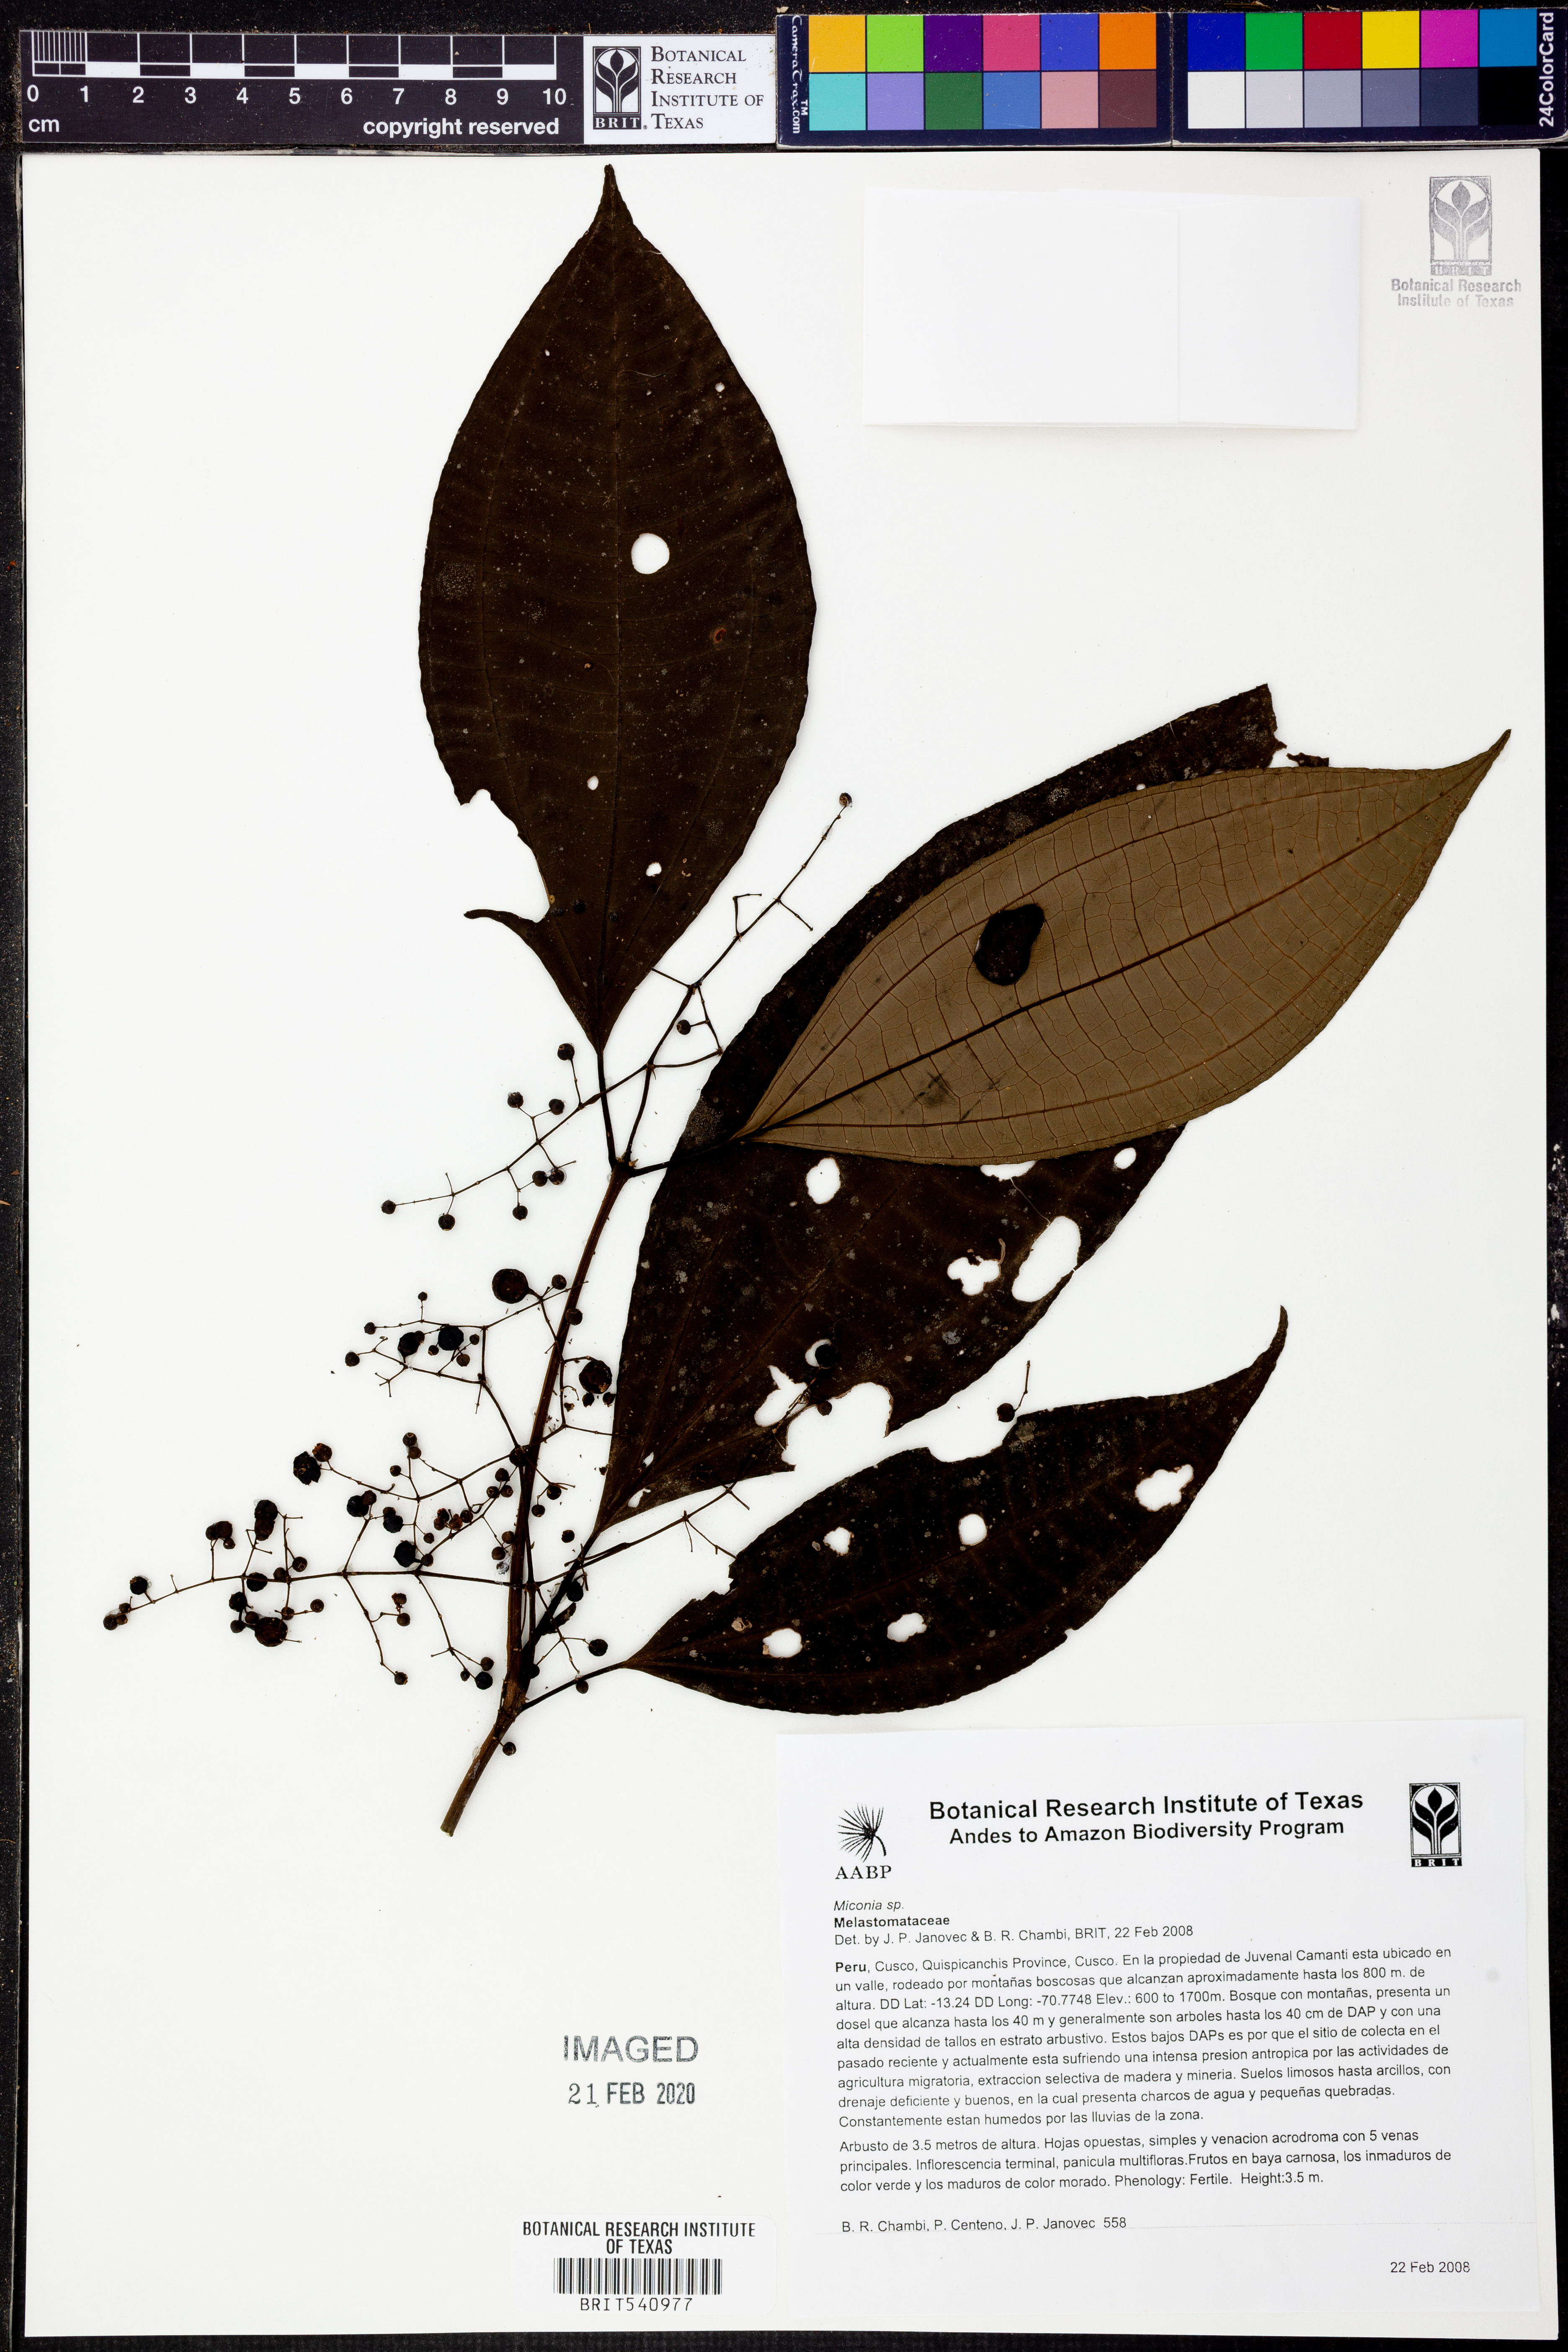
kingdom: Plantae
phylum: Tracheophyta
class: Magnoliopsida
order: Myrtales
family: Melastomataceae
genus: Miconia
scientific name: Miconia
